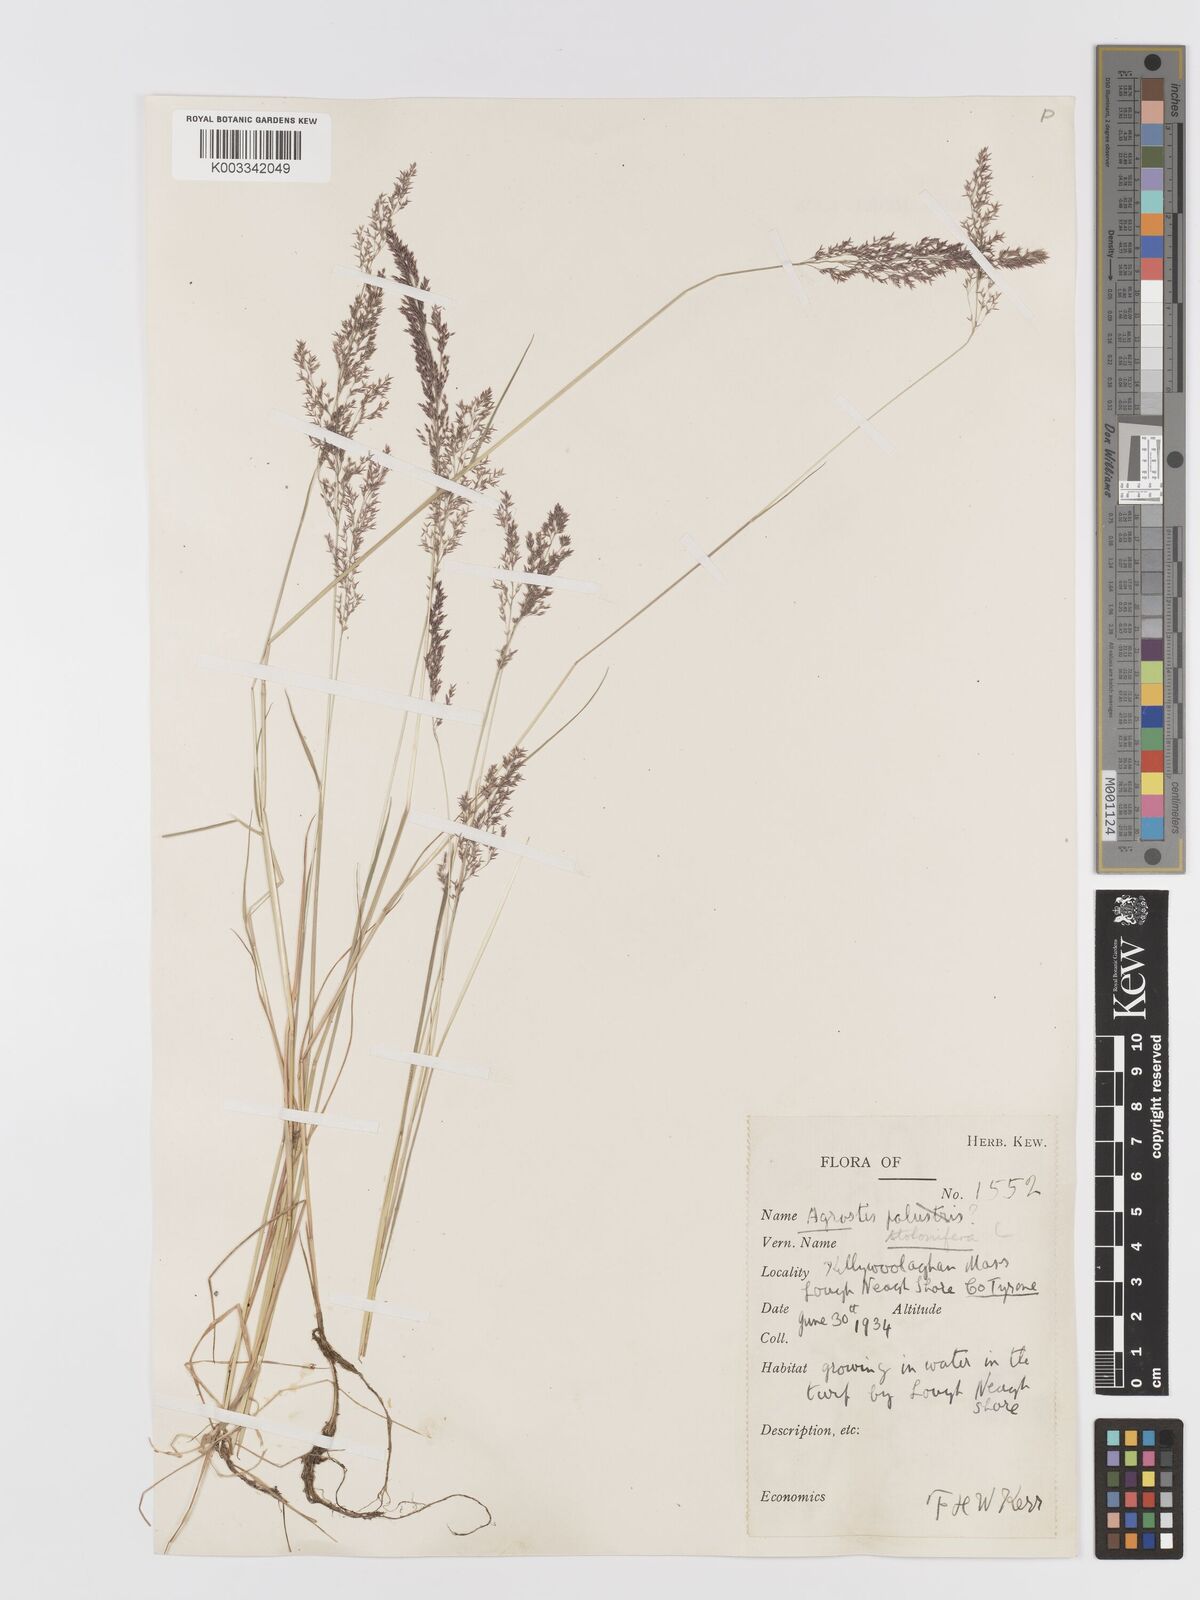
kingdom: Plantae
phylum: Tracheophyta
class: Liliopsida
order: Poales
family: Poaceae
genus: Agrostis
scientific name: Agrostis stolonifera
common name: Creeping bentgrass
